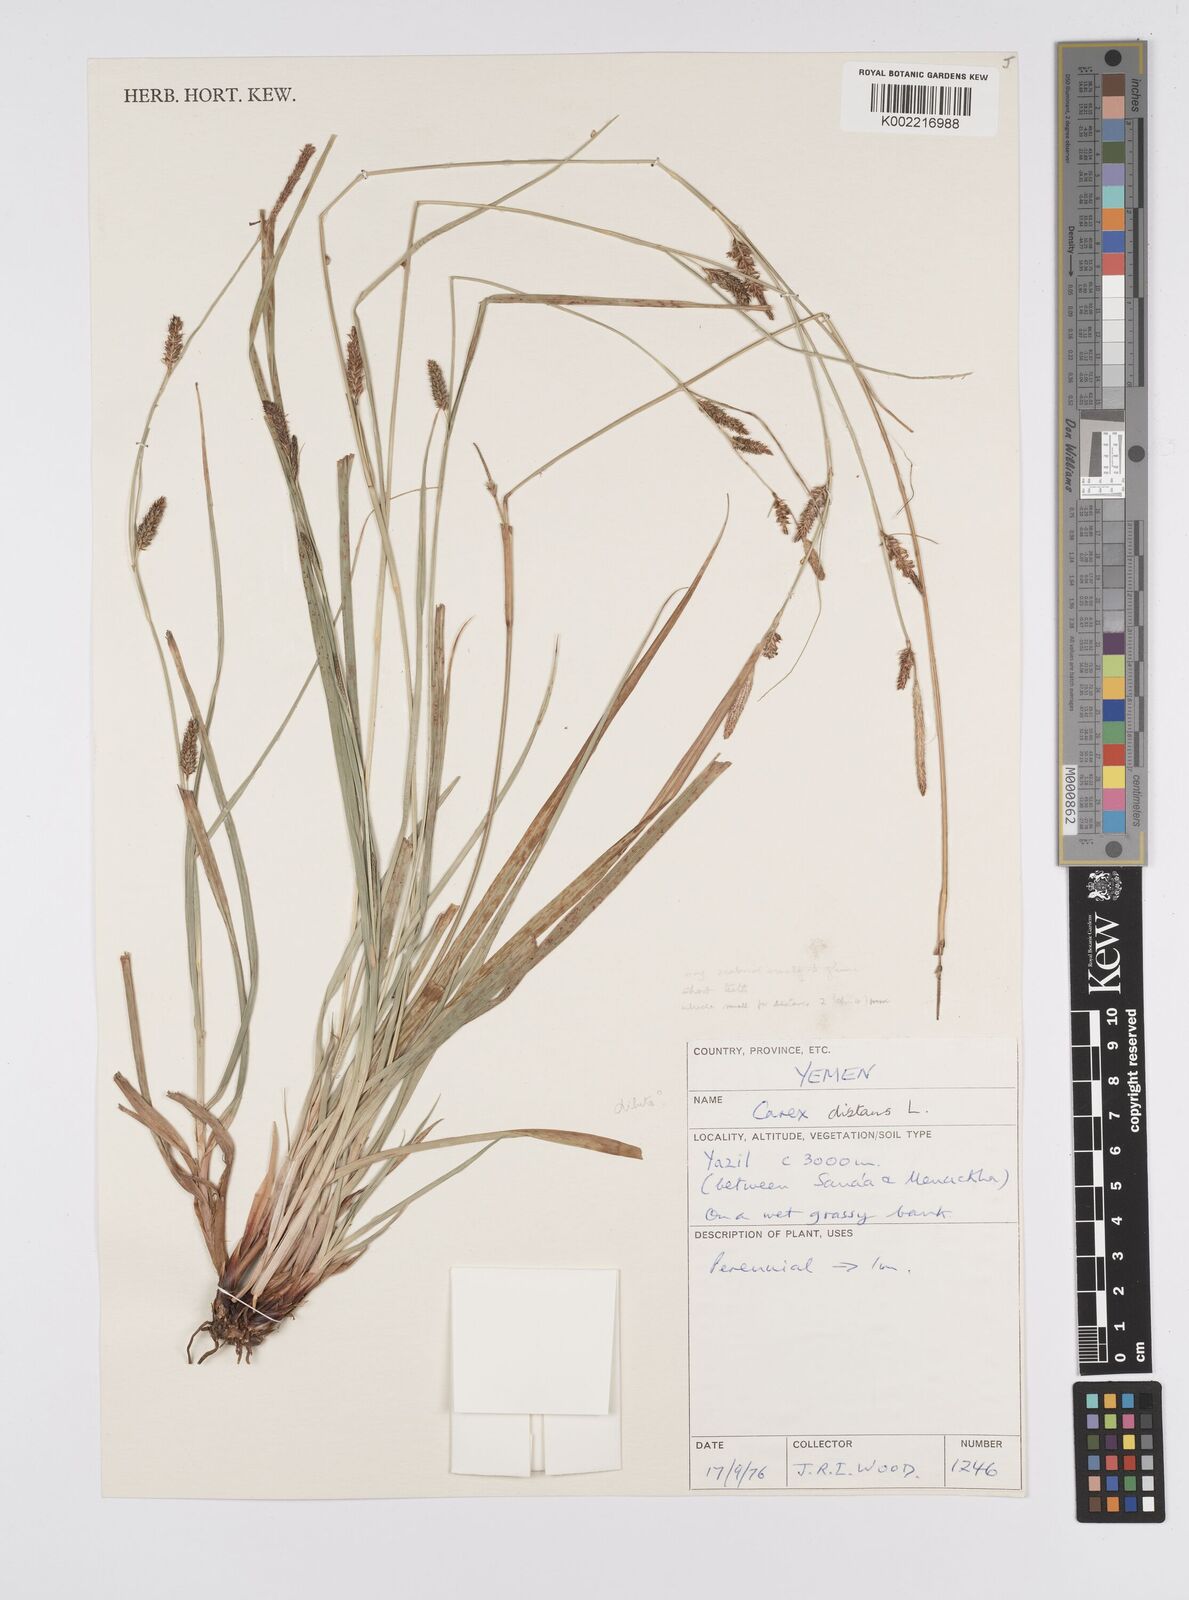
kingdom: Plantae
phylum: Tracheophyta
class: Liliopsida
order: Poales
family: Cyperaceae
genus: Carex
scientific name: Carex distans
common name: Distant sedge
